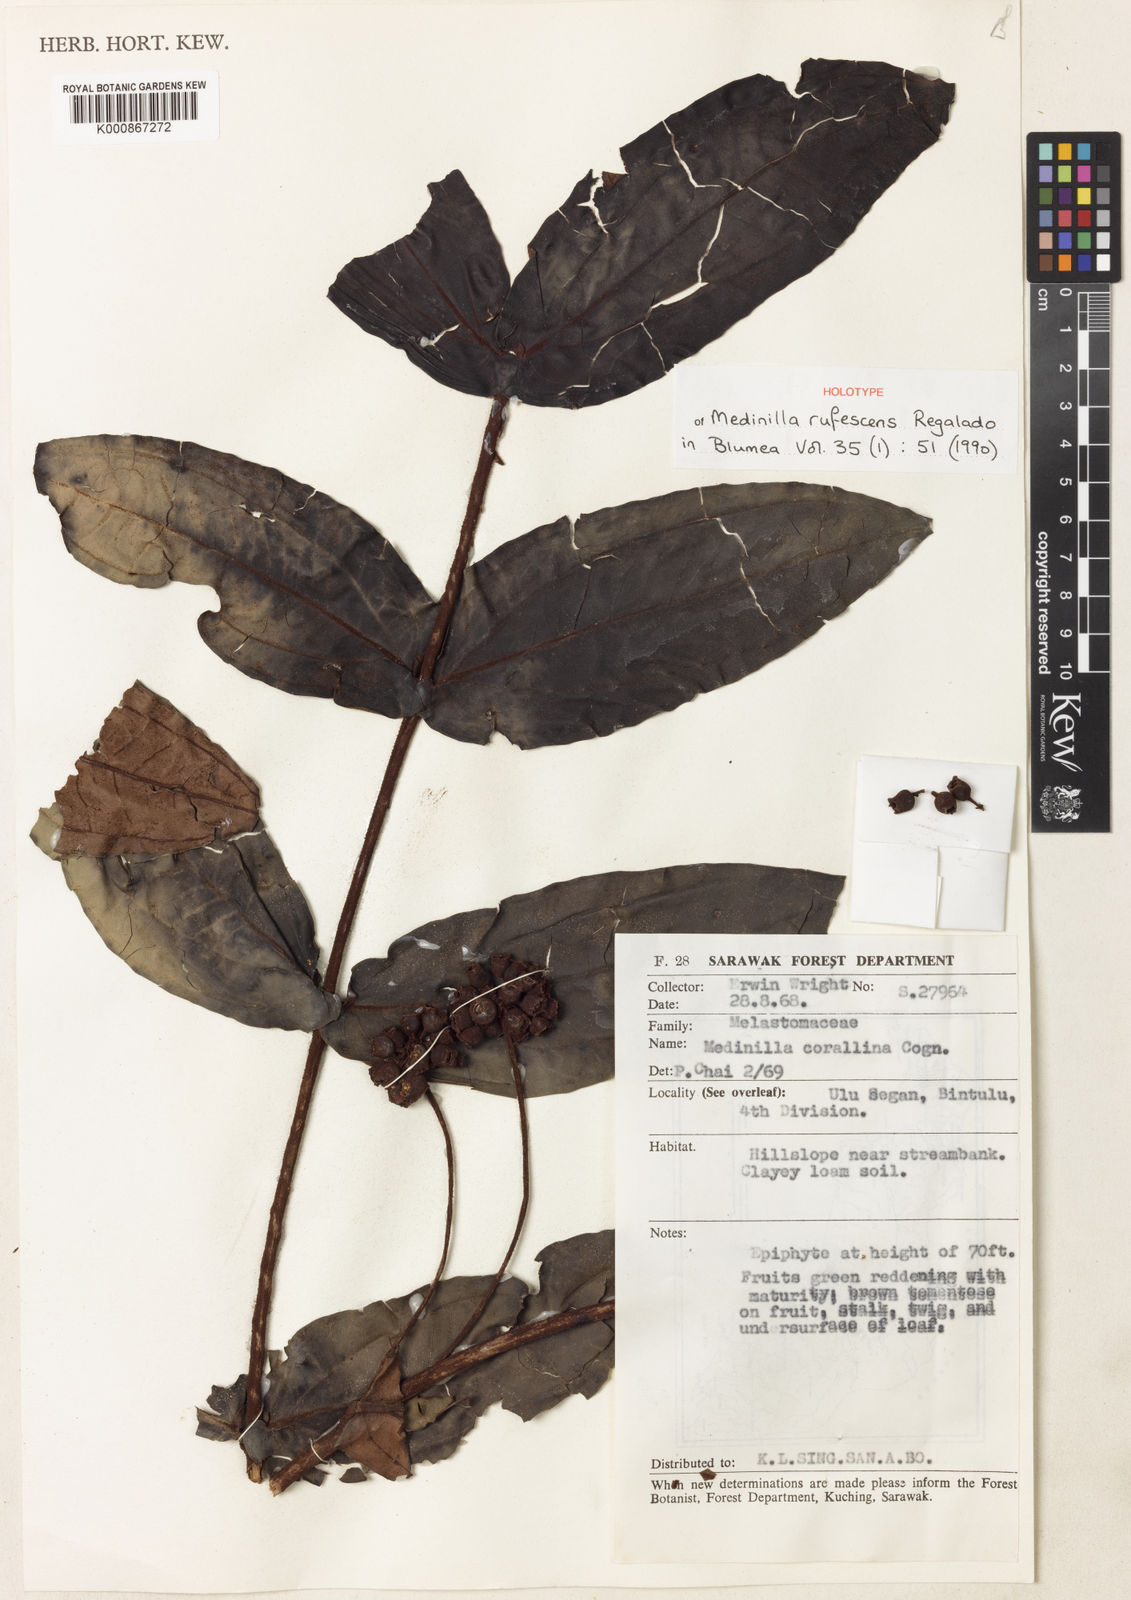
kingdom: Plantae
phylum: Tracheophyta
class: Magnoliopsida
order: Myrtales
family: Melastomataceae
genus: Medinilla
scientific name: Medinilla rufescens
